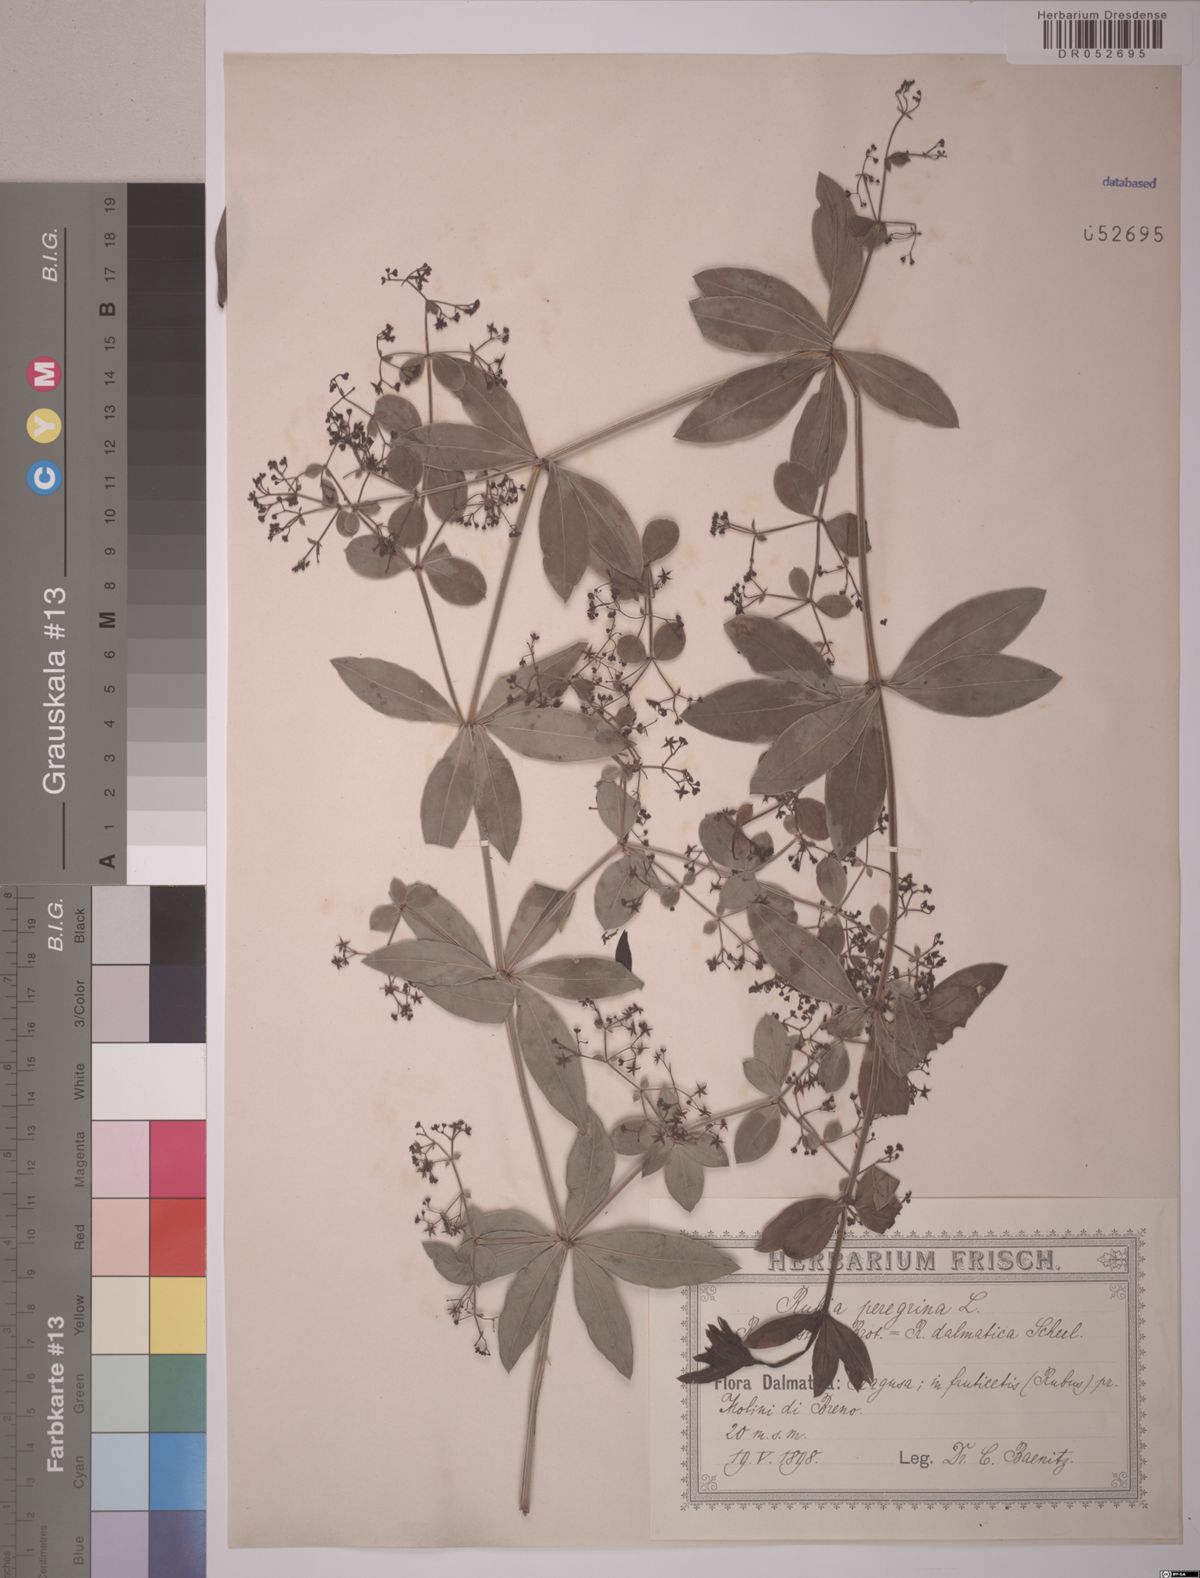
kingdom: Plantae
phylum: Tracheophyta
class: Magnoliopsida
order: Gentianales
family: Rubiaceae
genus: Rubia
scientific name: Rubia peregrina
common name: Wild madder
